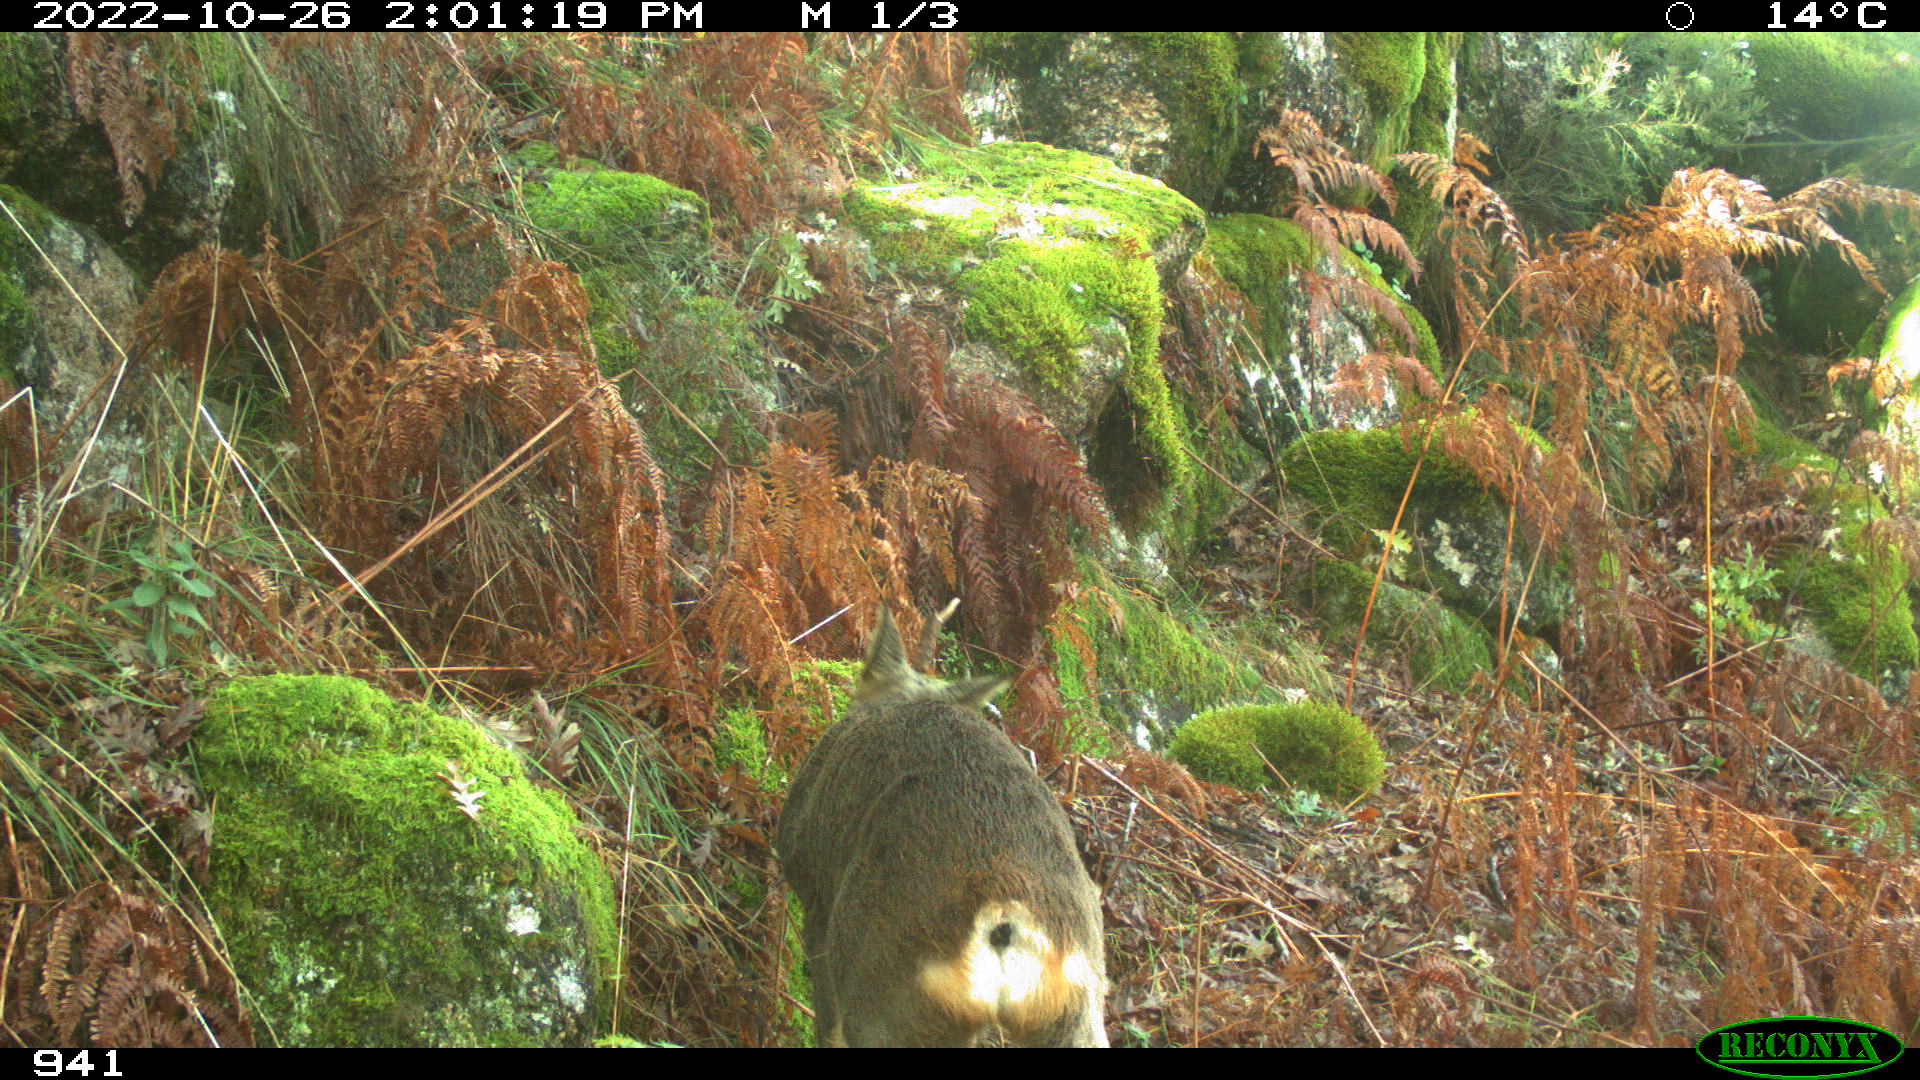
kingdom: Animalia
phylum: Chordata
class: Mammalia
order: Artiodactyla
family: Cervidae
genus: Capreolus
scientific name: Capreolus capreolus
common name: Western roe deer
